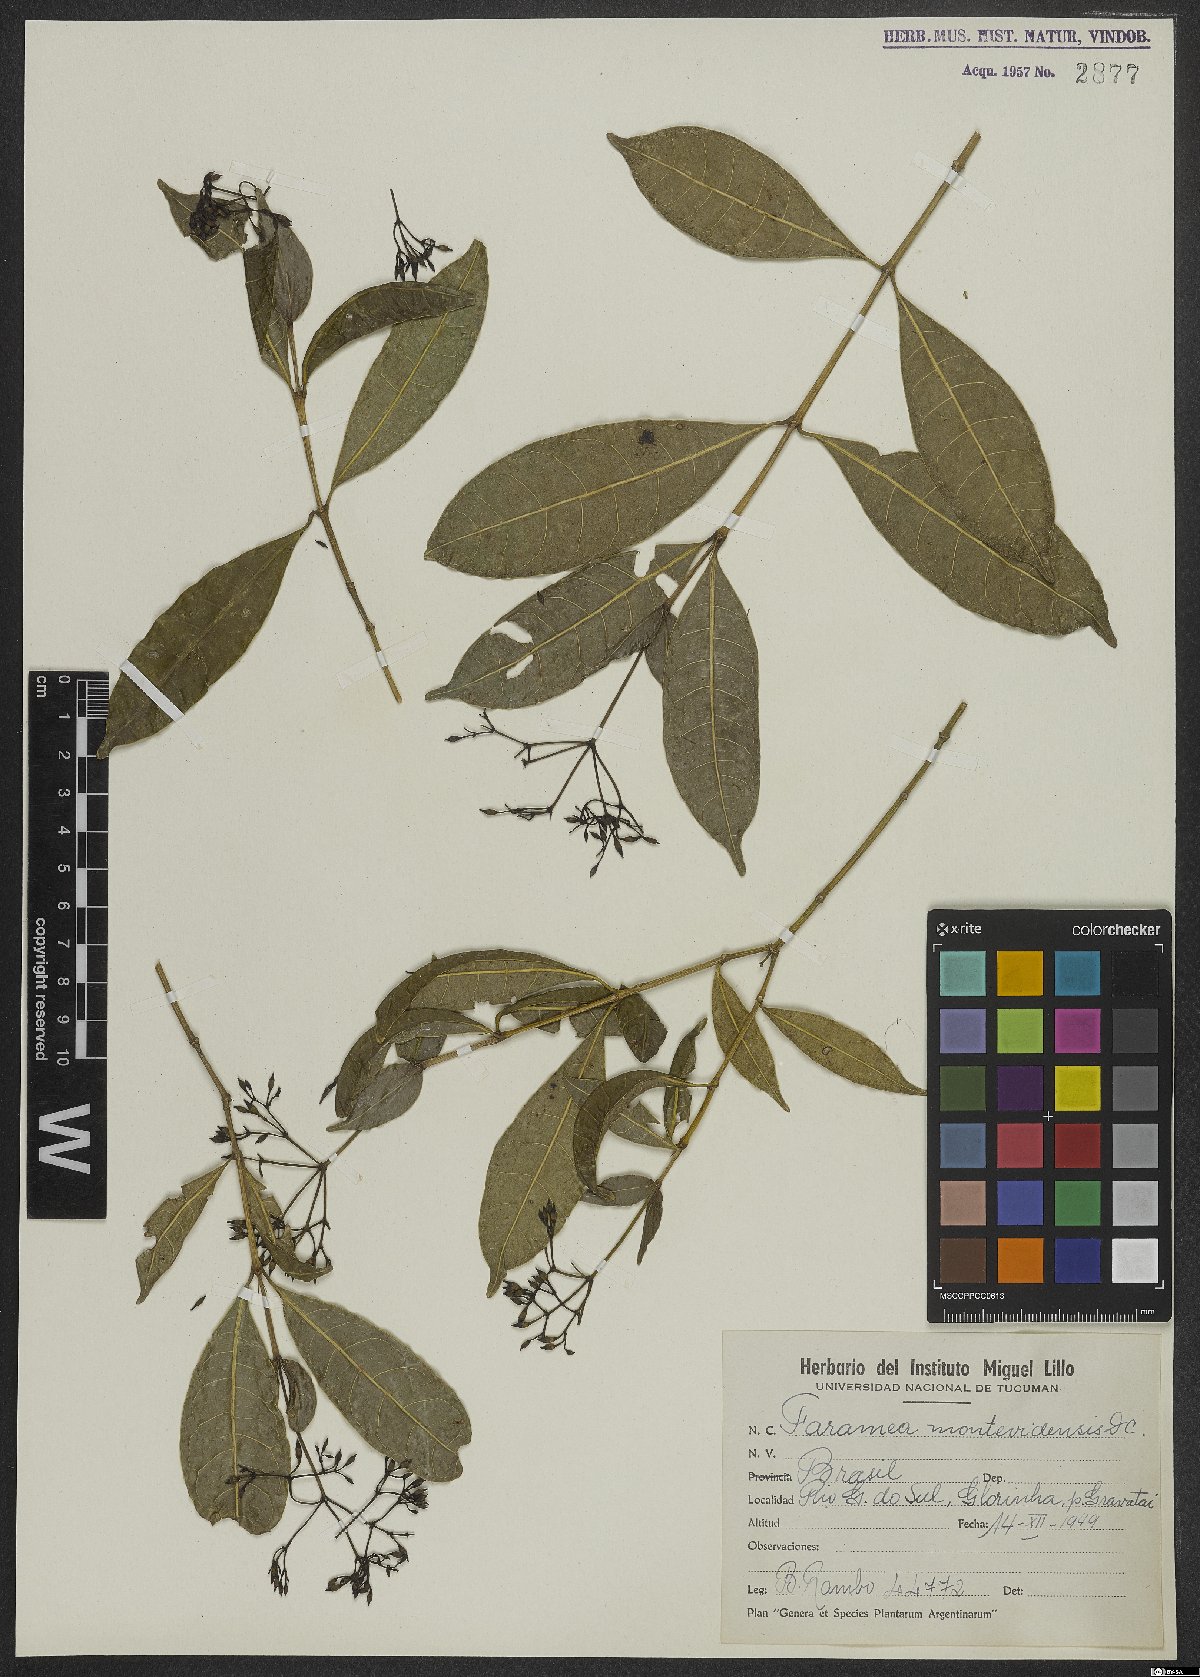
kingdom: Plantae
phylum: Tracheophyta
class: Magnoliopsida
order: Gentianales
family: Rubiaceae
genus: Faramea
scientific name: Faramea montevidensis
